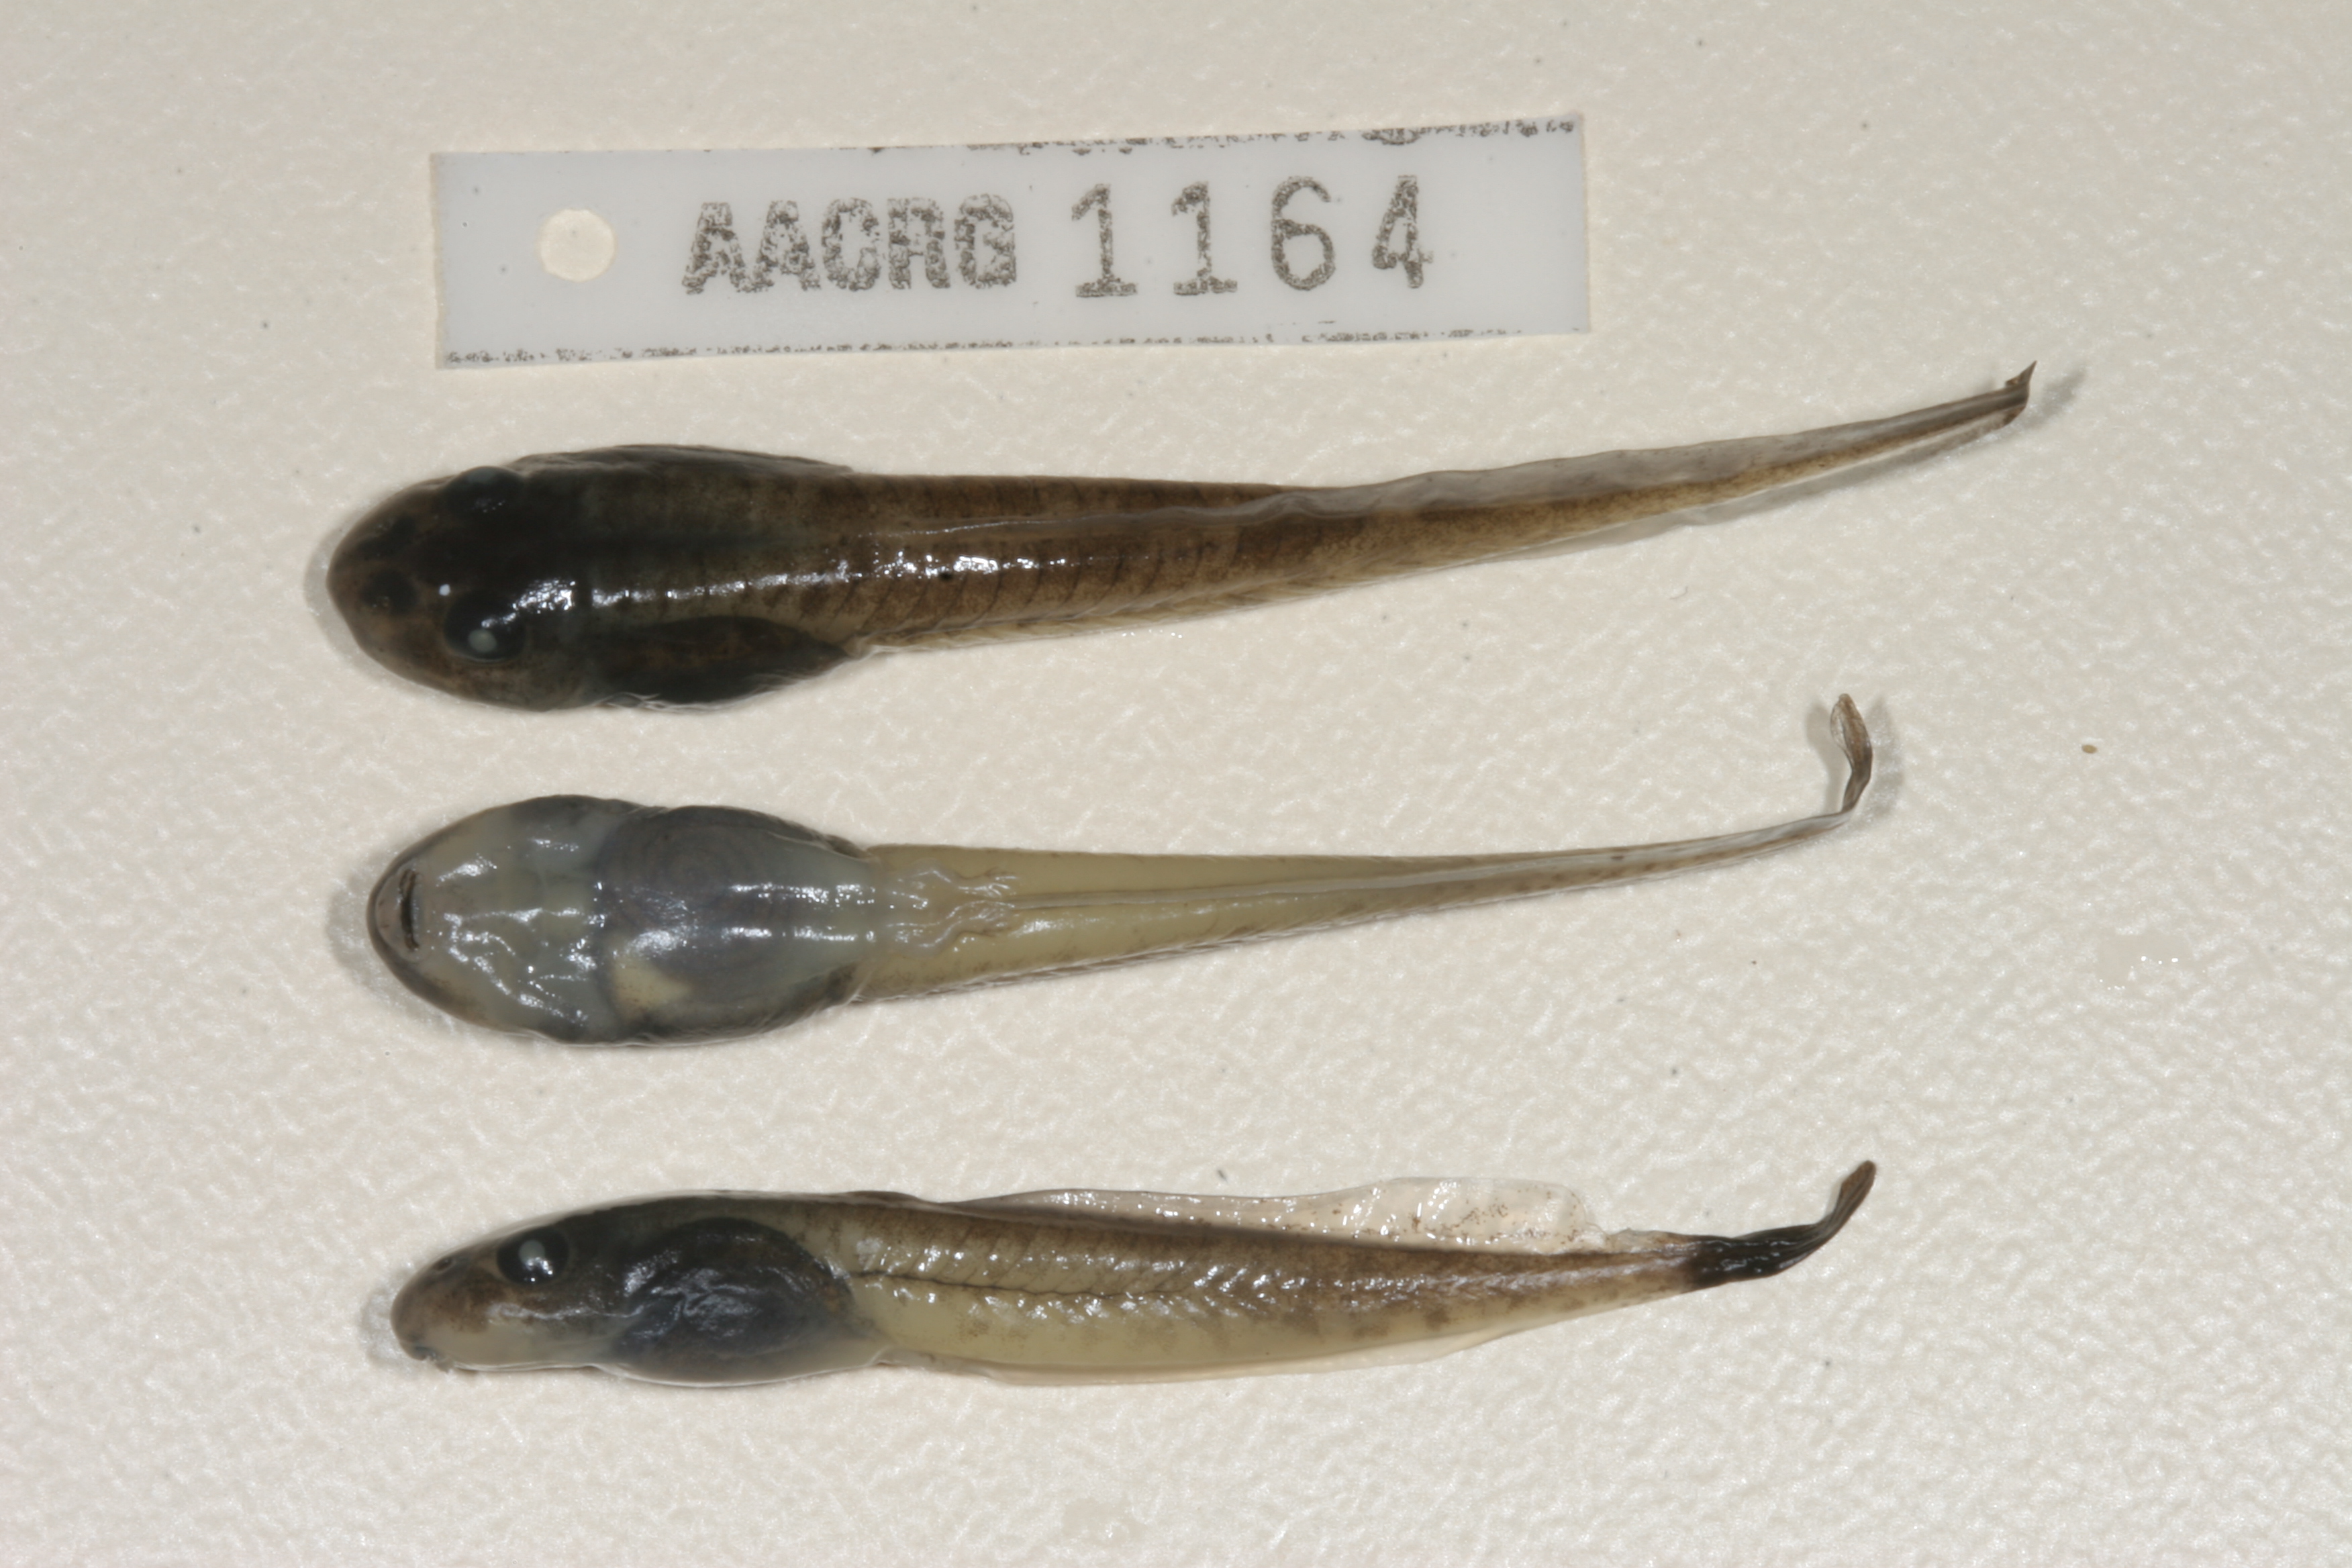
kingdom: Animalia
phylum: Chordata
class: Amphibia
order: Anura
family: Pyxicephalidae
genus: Amietia
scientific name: Amietia delalandii
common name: Delalande's river frog
